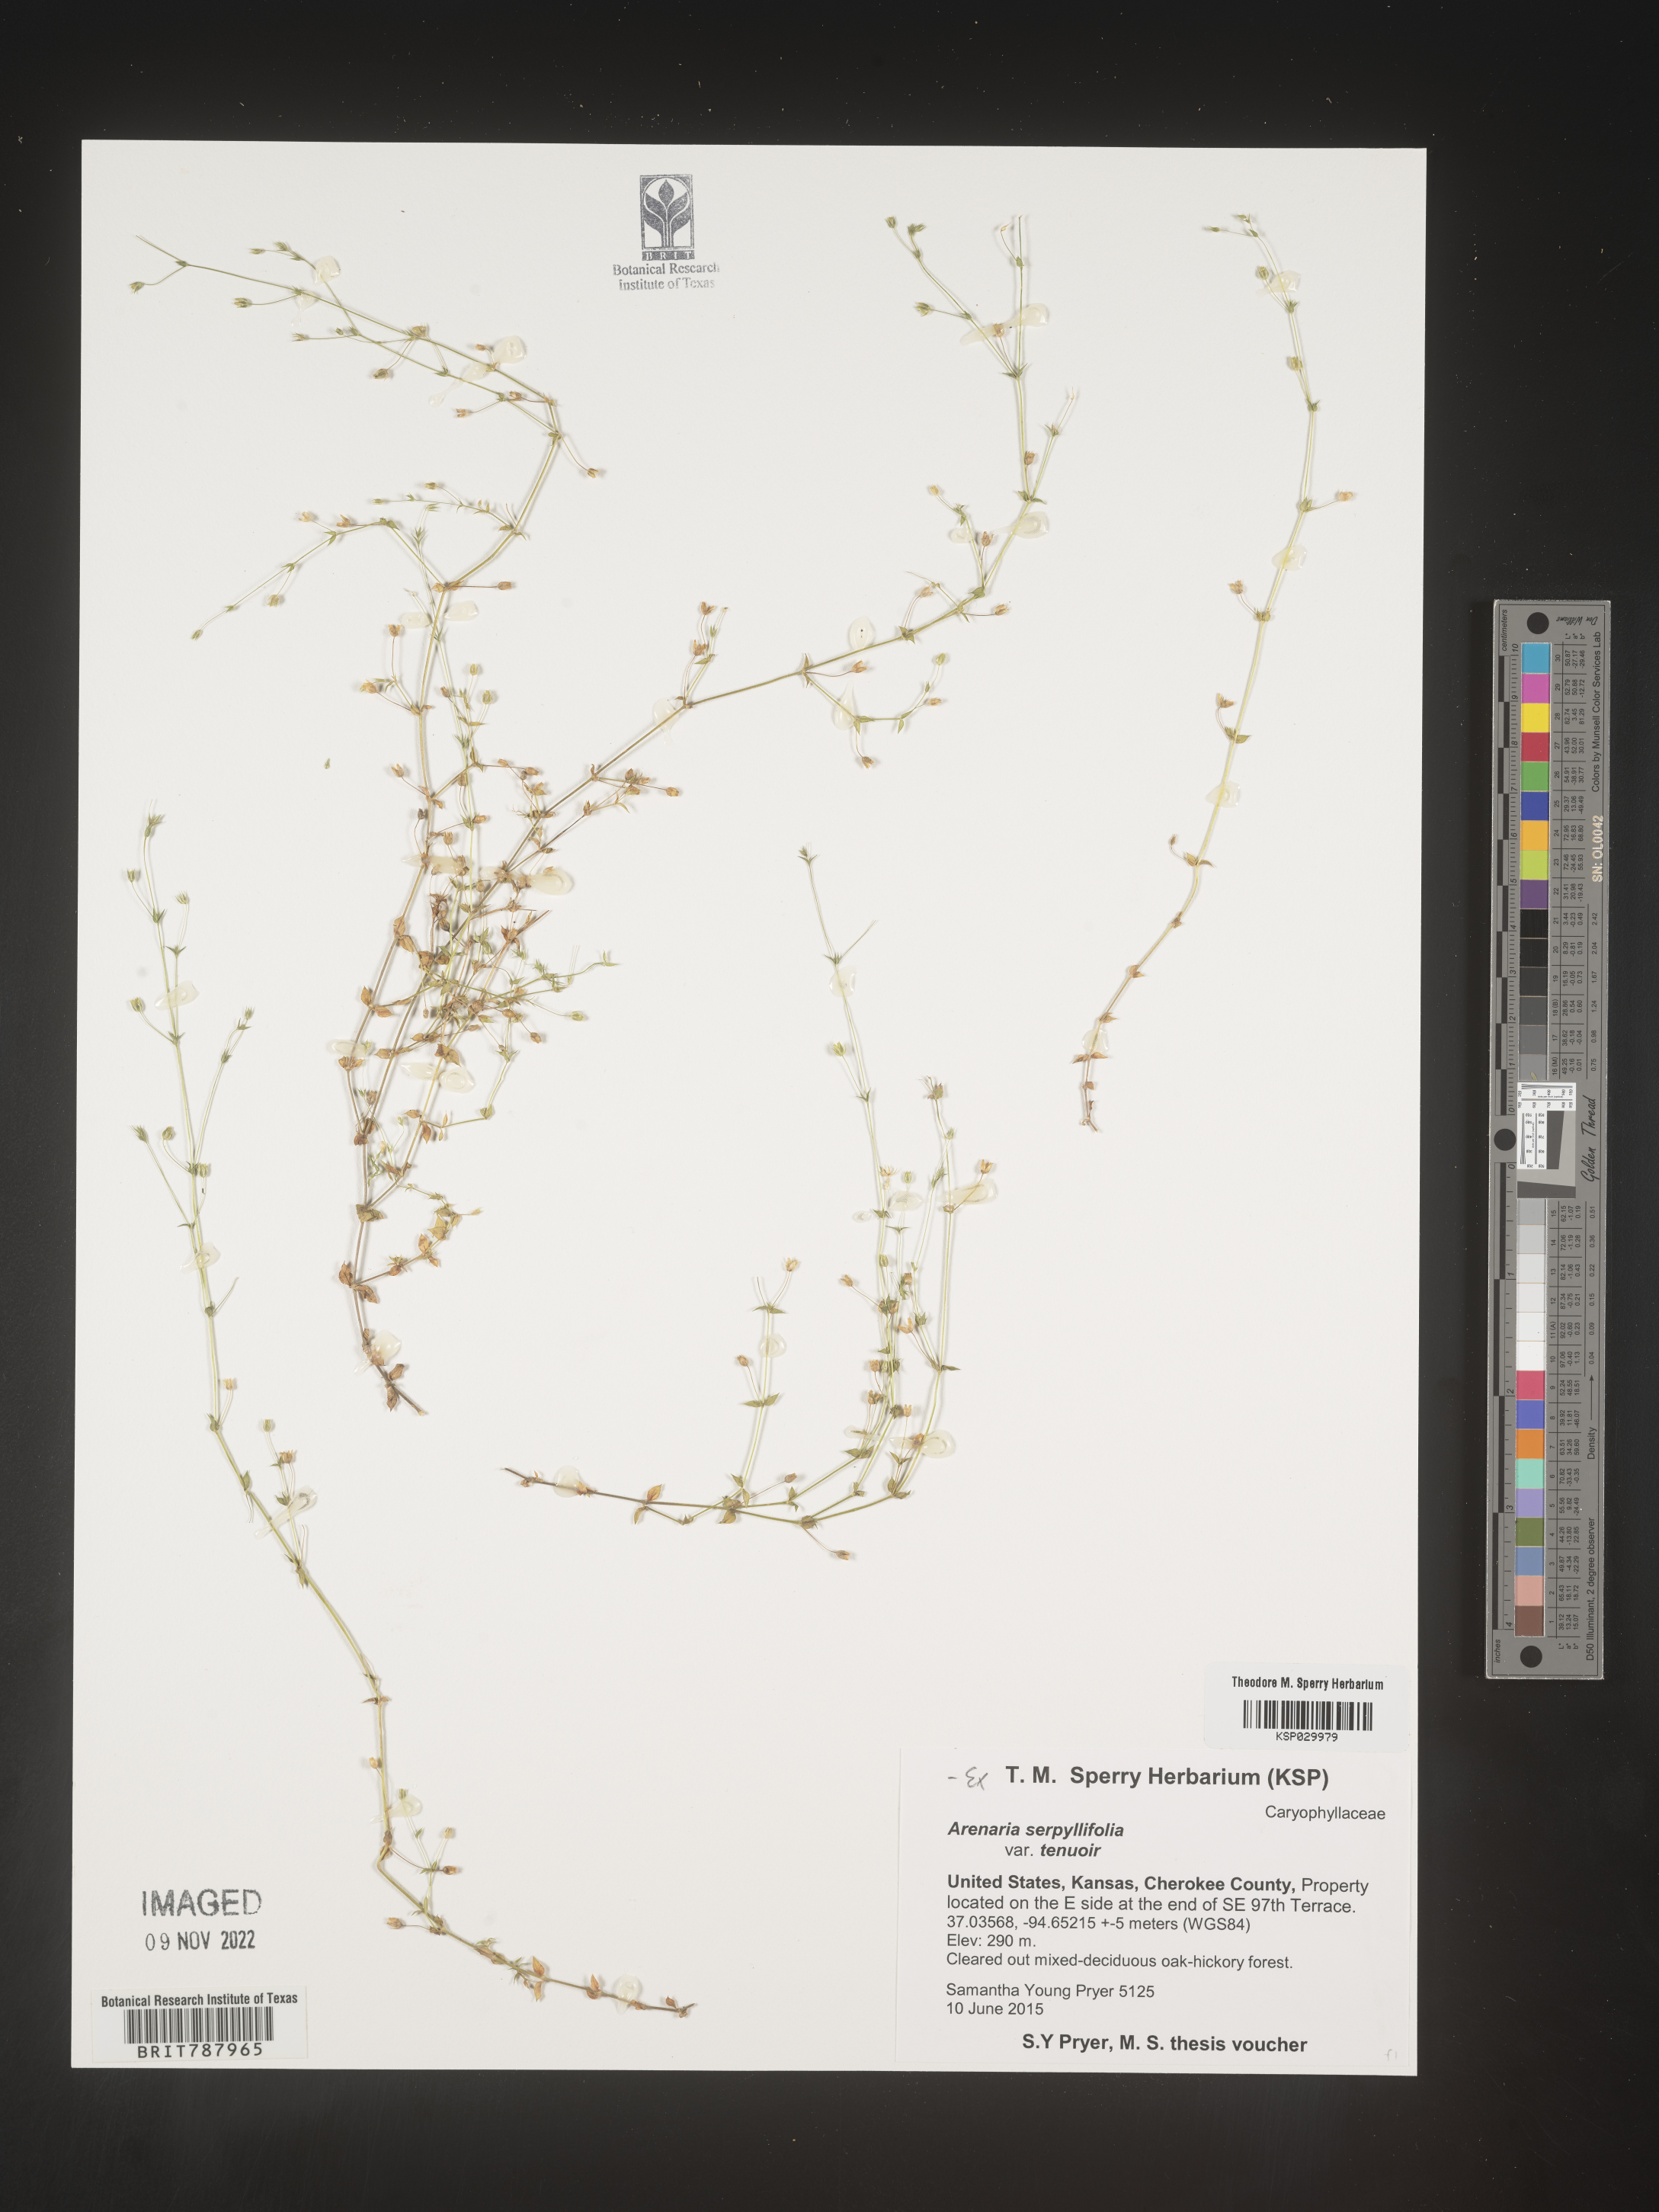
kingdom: Plantae
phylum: Tracheophyta
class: Magnoliopsida
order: Caryophyllales
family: Caryophyllaceae
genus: Arenaria
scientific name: Arenaria serpyllifolia
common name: Thyme-leaved sandwort
